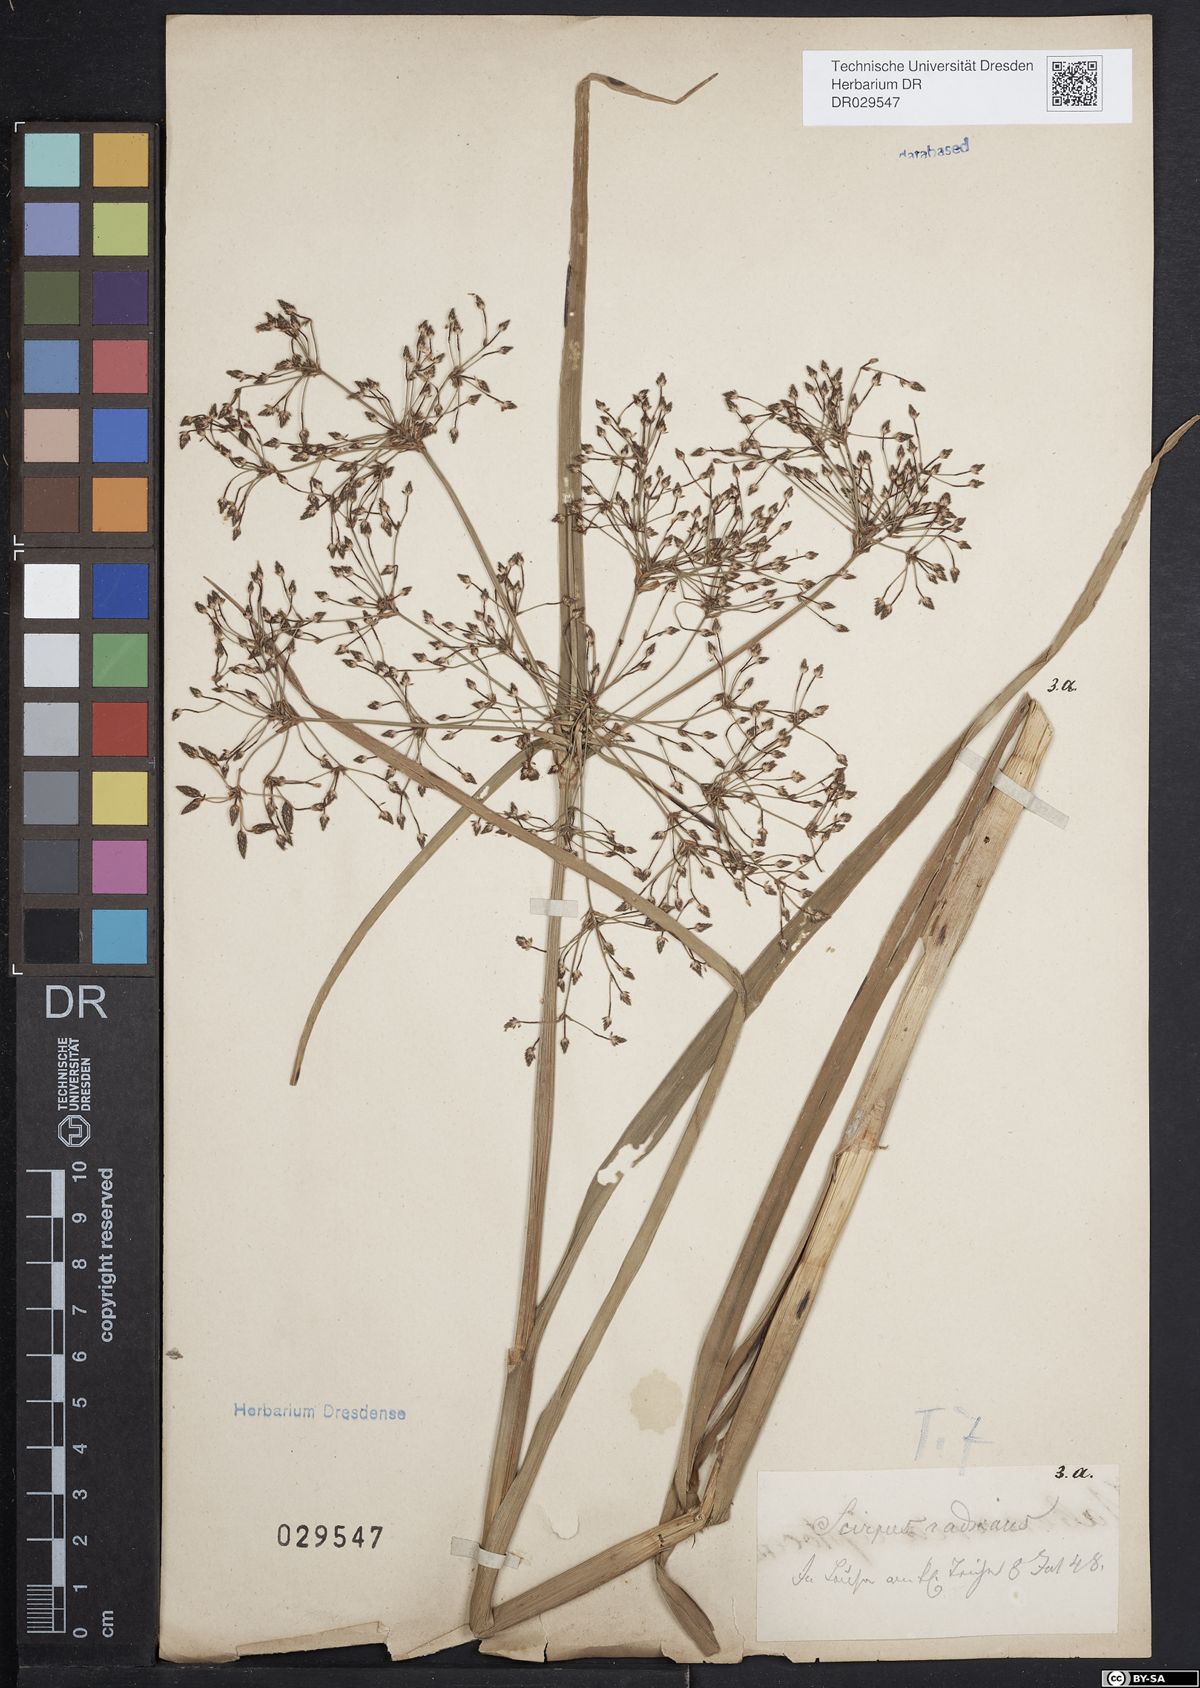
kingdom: Plantae
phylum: Tracheophyta
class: Liliopsida
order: Poales
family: Cyperaceae
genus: Scirpus
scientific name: Scirpus radicans
